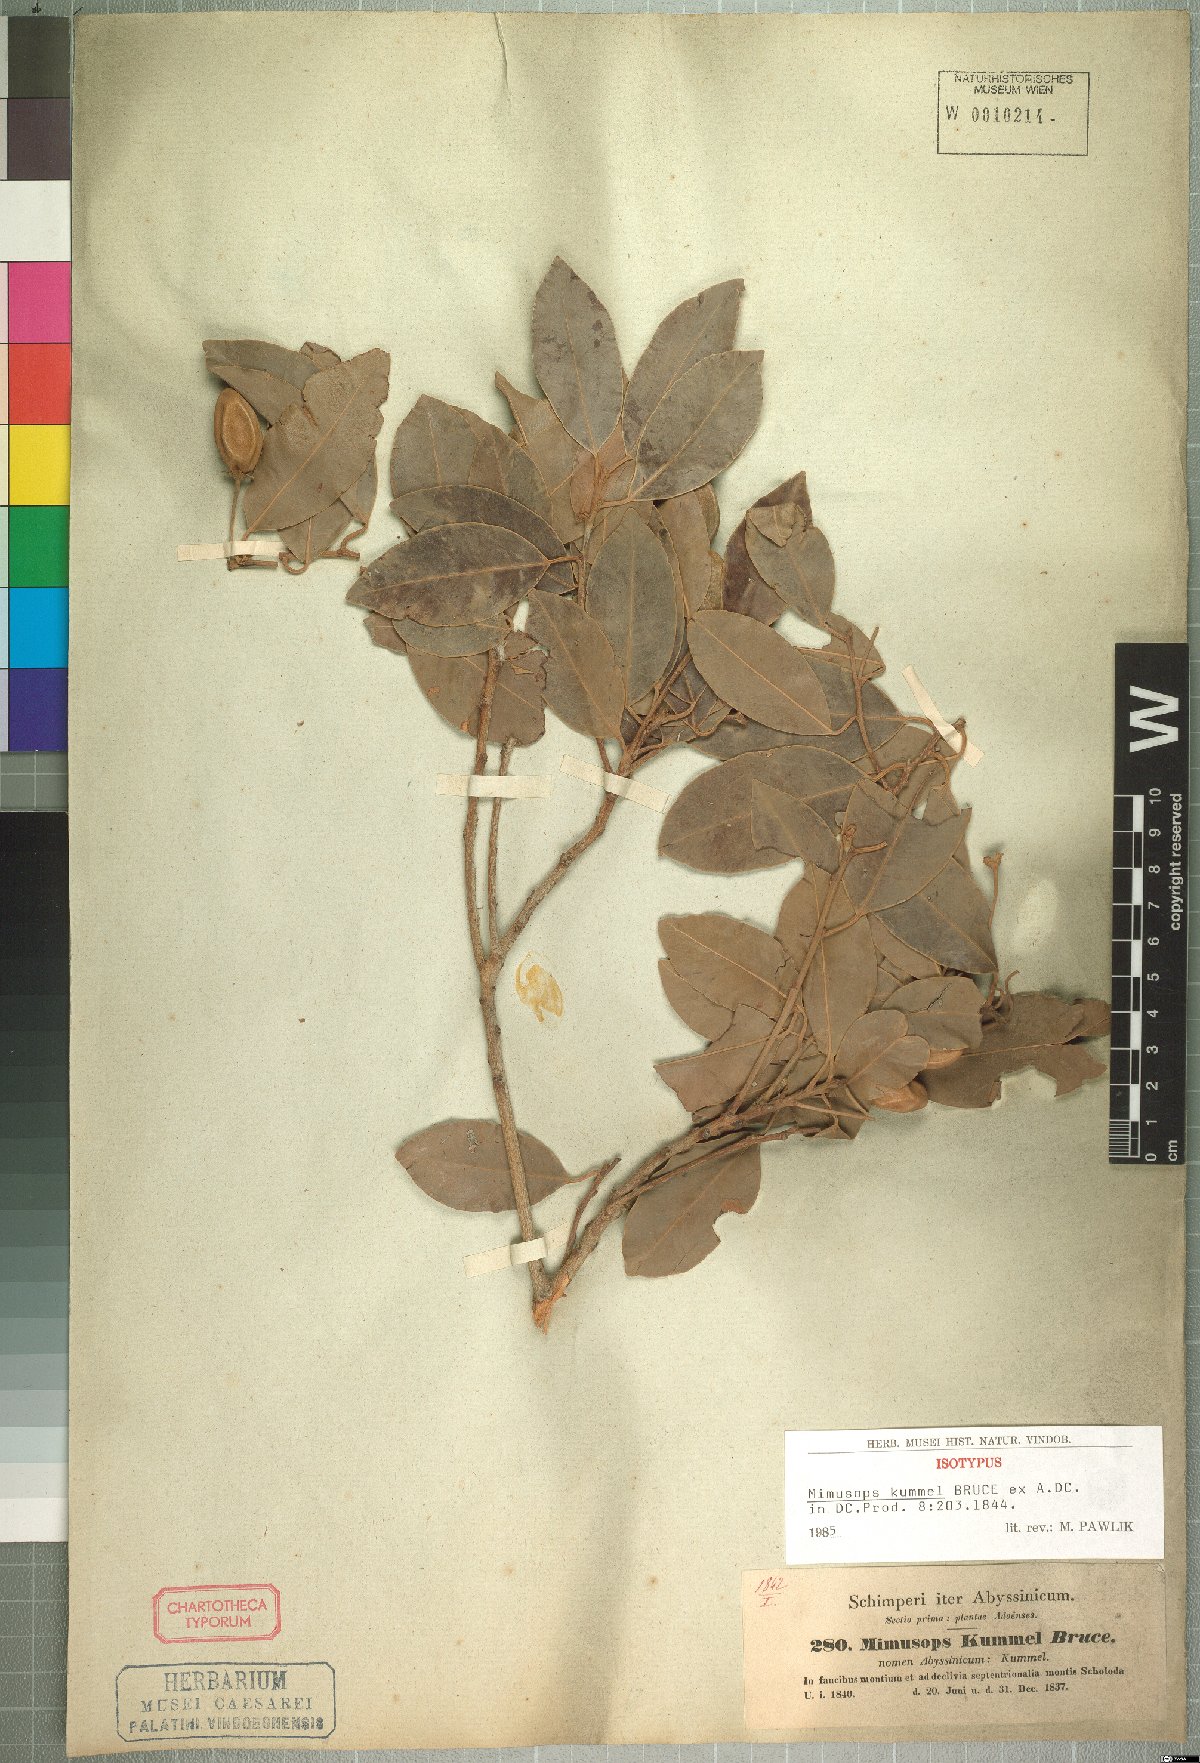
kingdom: Plantae
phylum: Tracheophyta
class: Magnoliopsida
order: Ericales
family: Sapotaceae
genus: Mimusops
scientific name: Mimusops kummel
